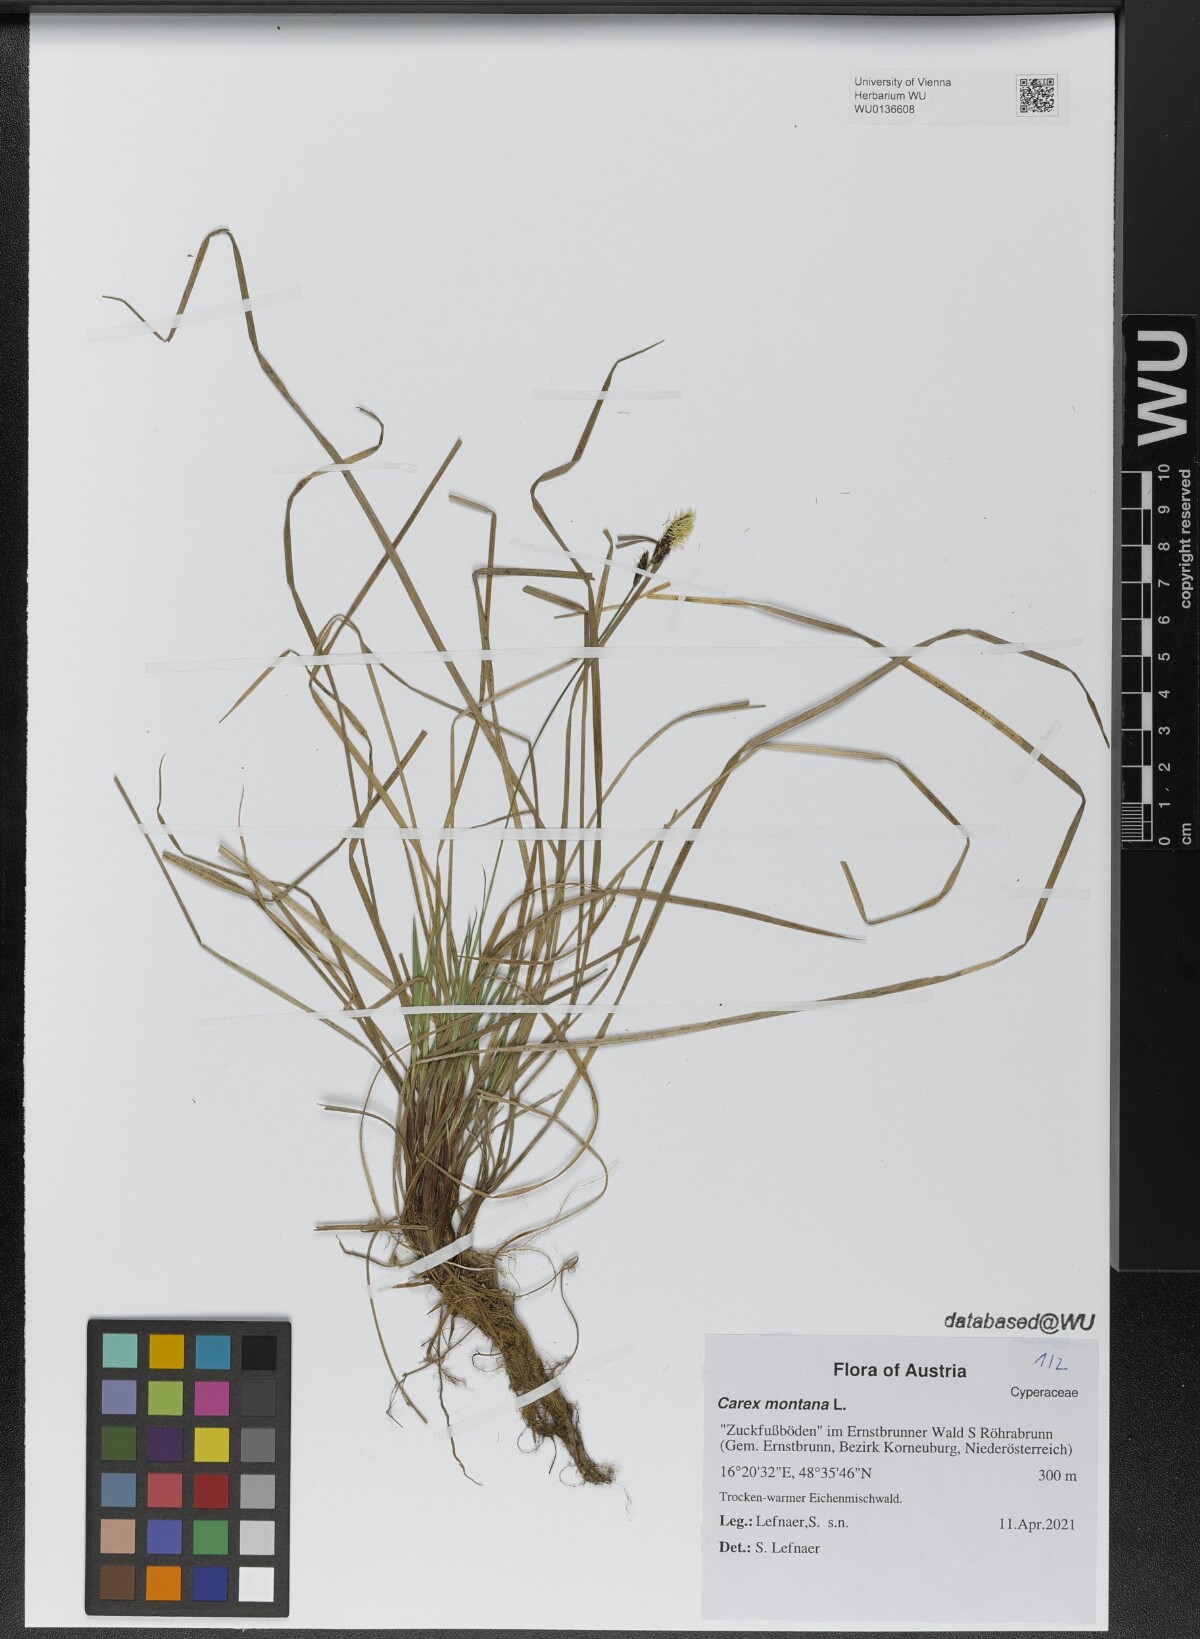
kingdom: Plantae
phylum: Tracheophyta
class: Liliopsida
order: Poales
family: Cyperaceae
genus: Carex
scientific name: Carex montana
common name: Soft-leaved sedge
